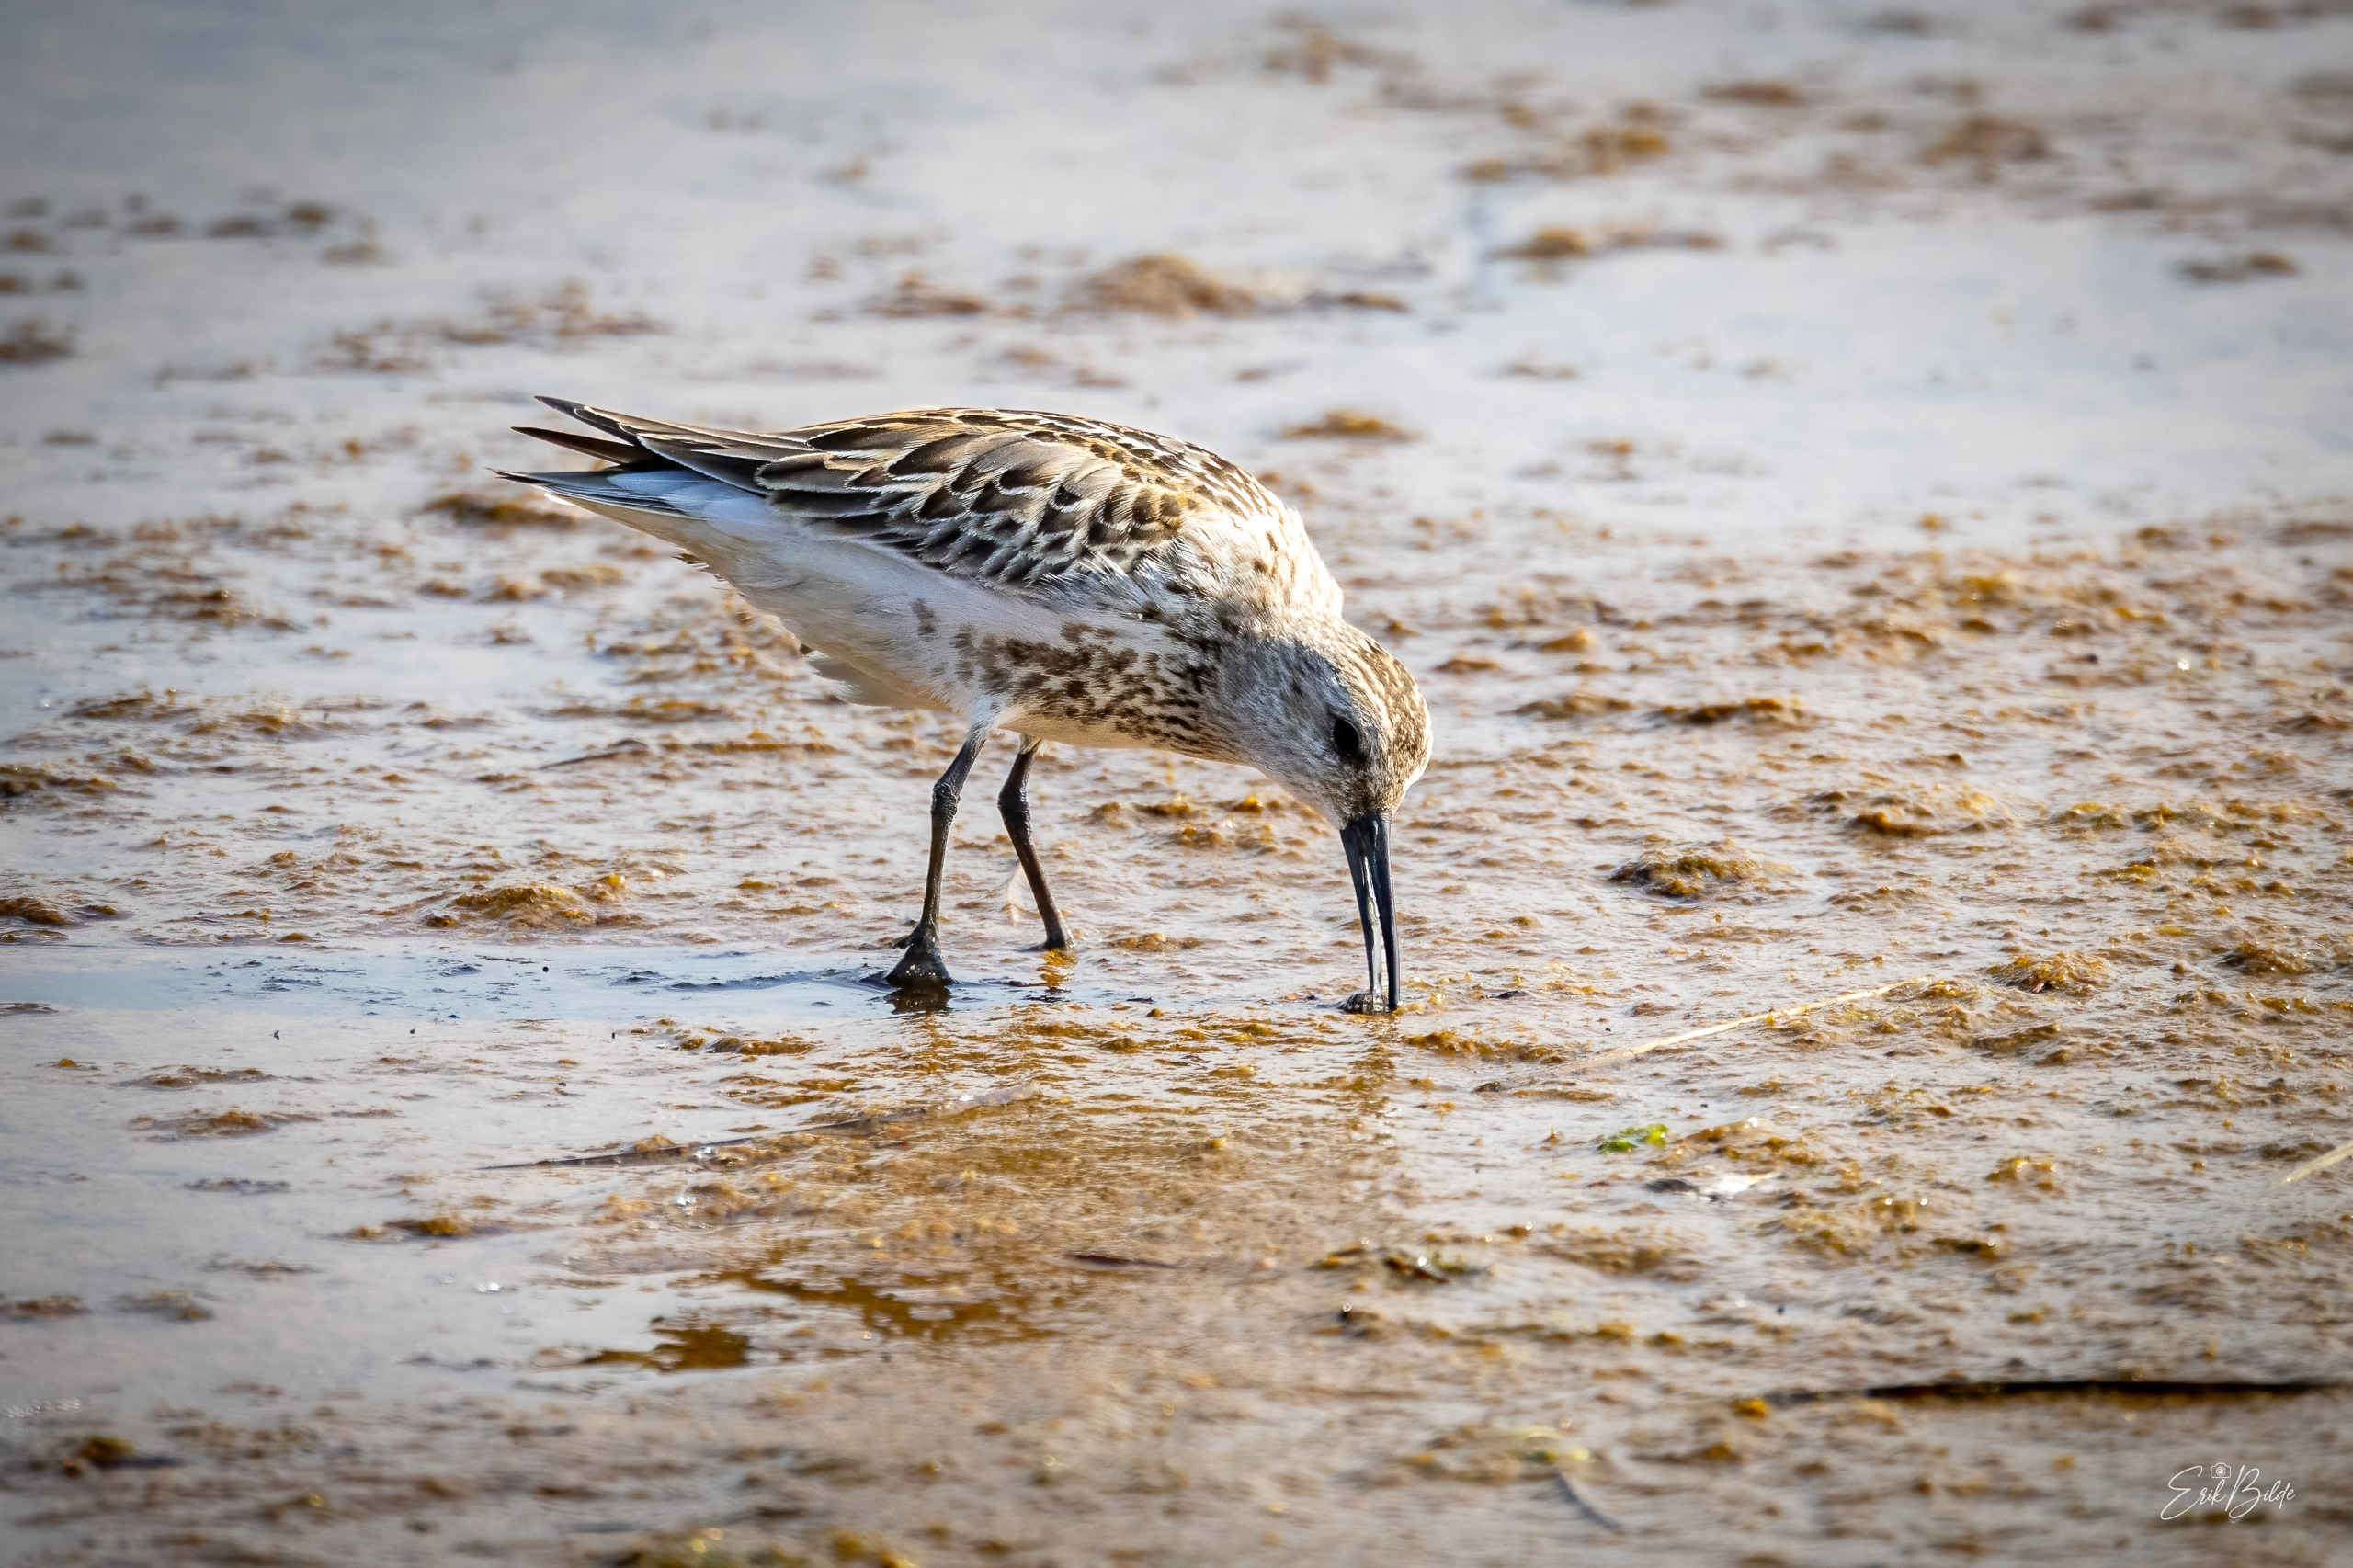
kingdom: Animalia
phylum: Chordata
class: Aves
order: Charadriiformes
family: Scolopacidae
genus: Calidris
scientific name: Calidris alpina
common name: Almindelig ryle
